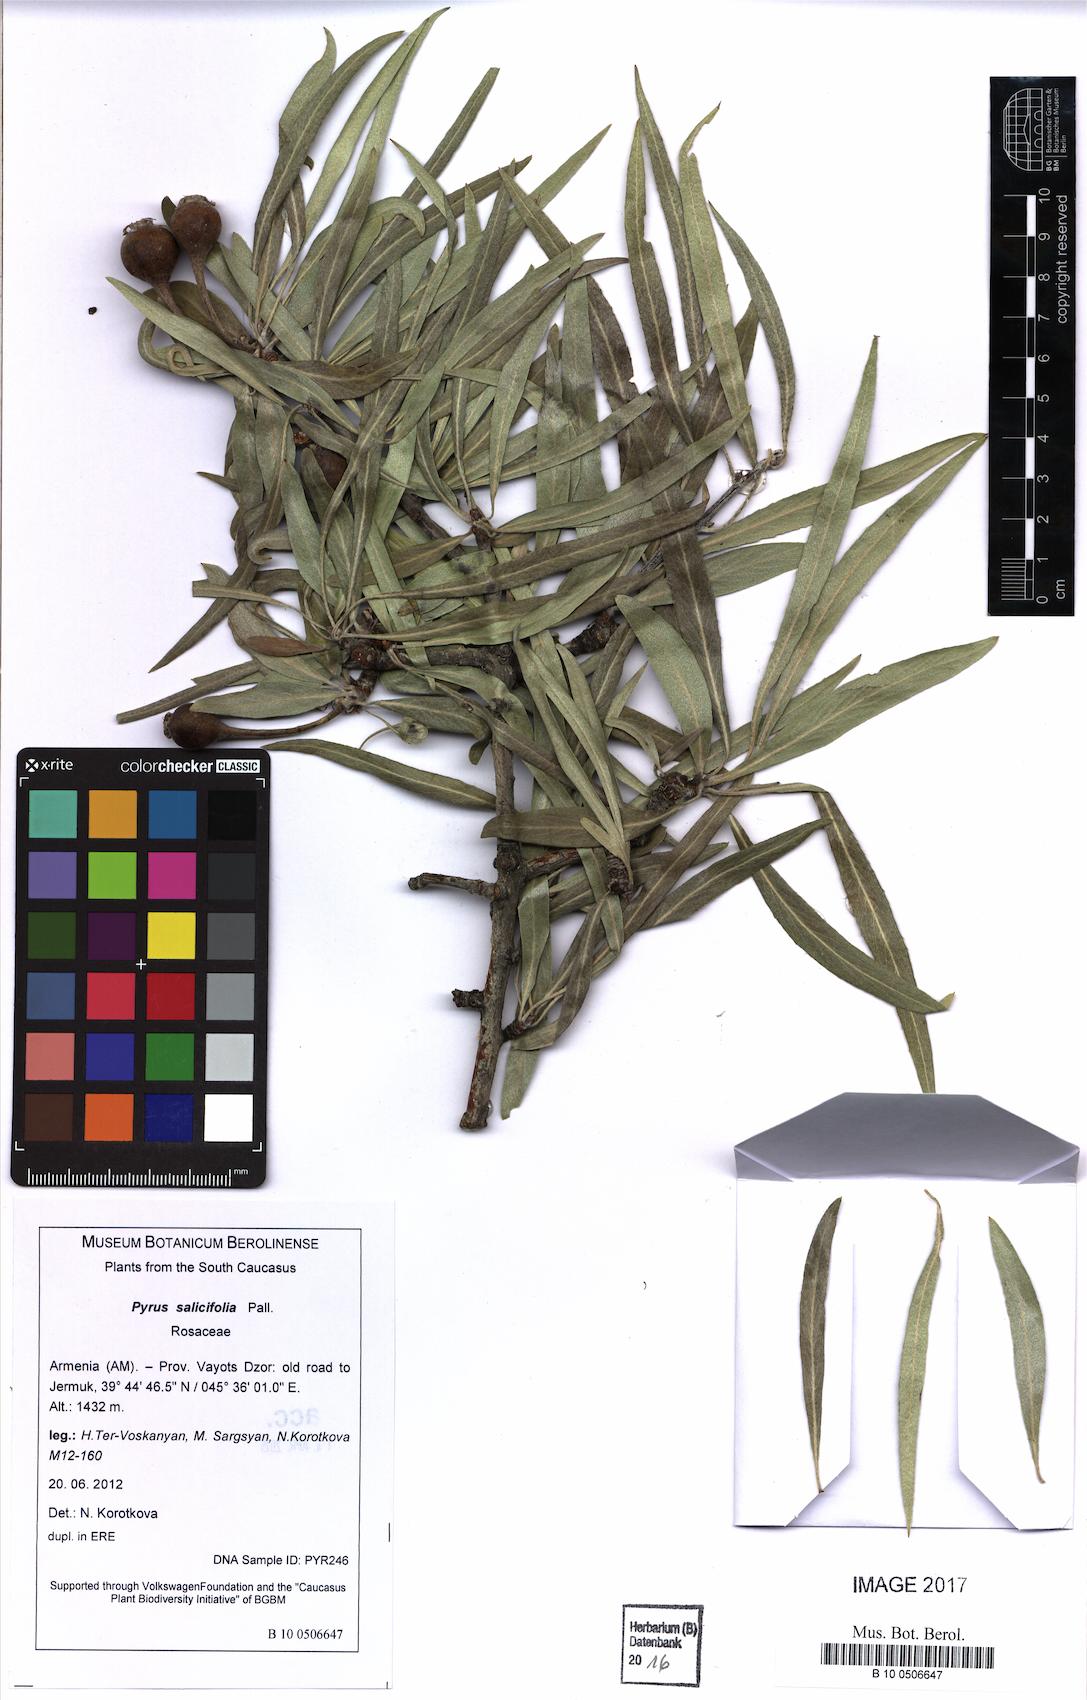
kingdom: Plantae
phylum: Tracheophyta
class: Magnoliopsida
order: Rosales
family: Rosaceae
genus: Pyrus
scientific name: Pyrus salicifolia
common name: Willow-leaved pear
